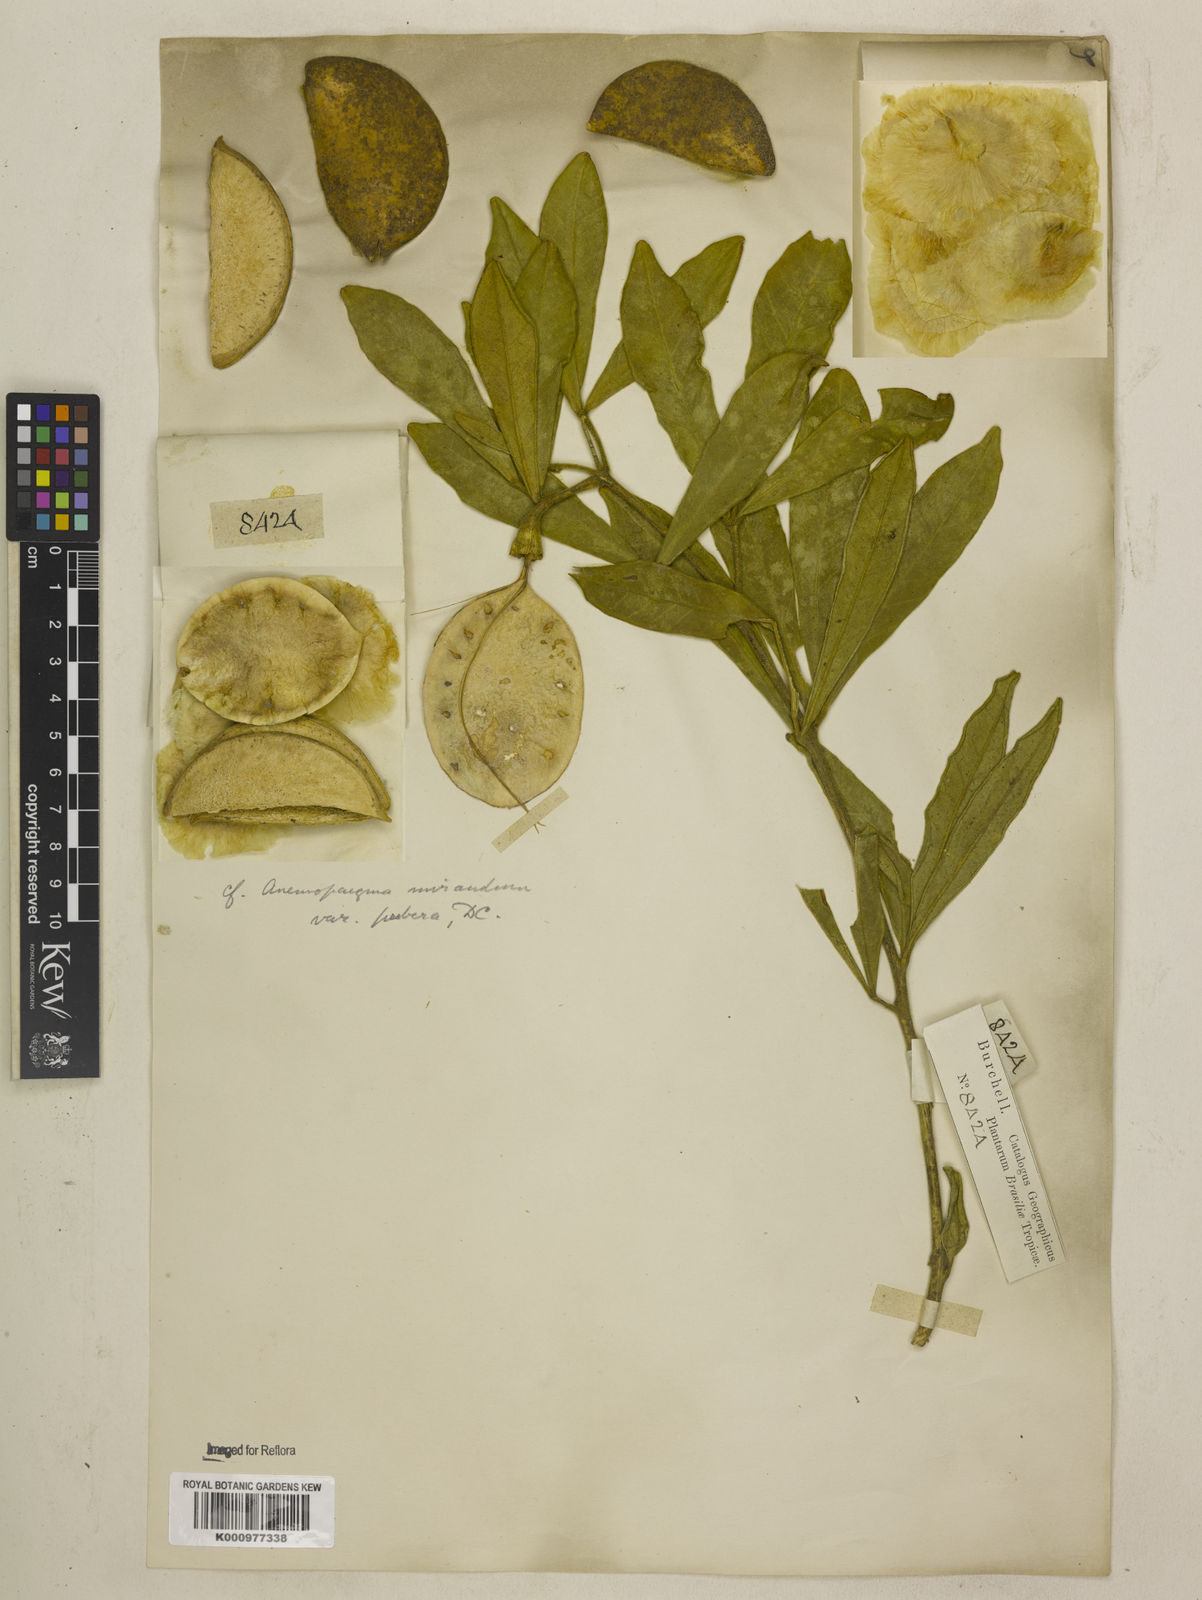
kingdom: Plantae
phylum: Tracheophyta
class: Magnoliopsida
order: Lamiales
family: Bignoniaceae
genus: Anemopaegma
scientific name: Anemopaegma glaucum
